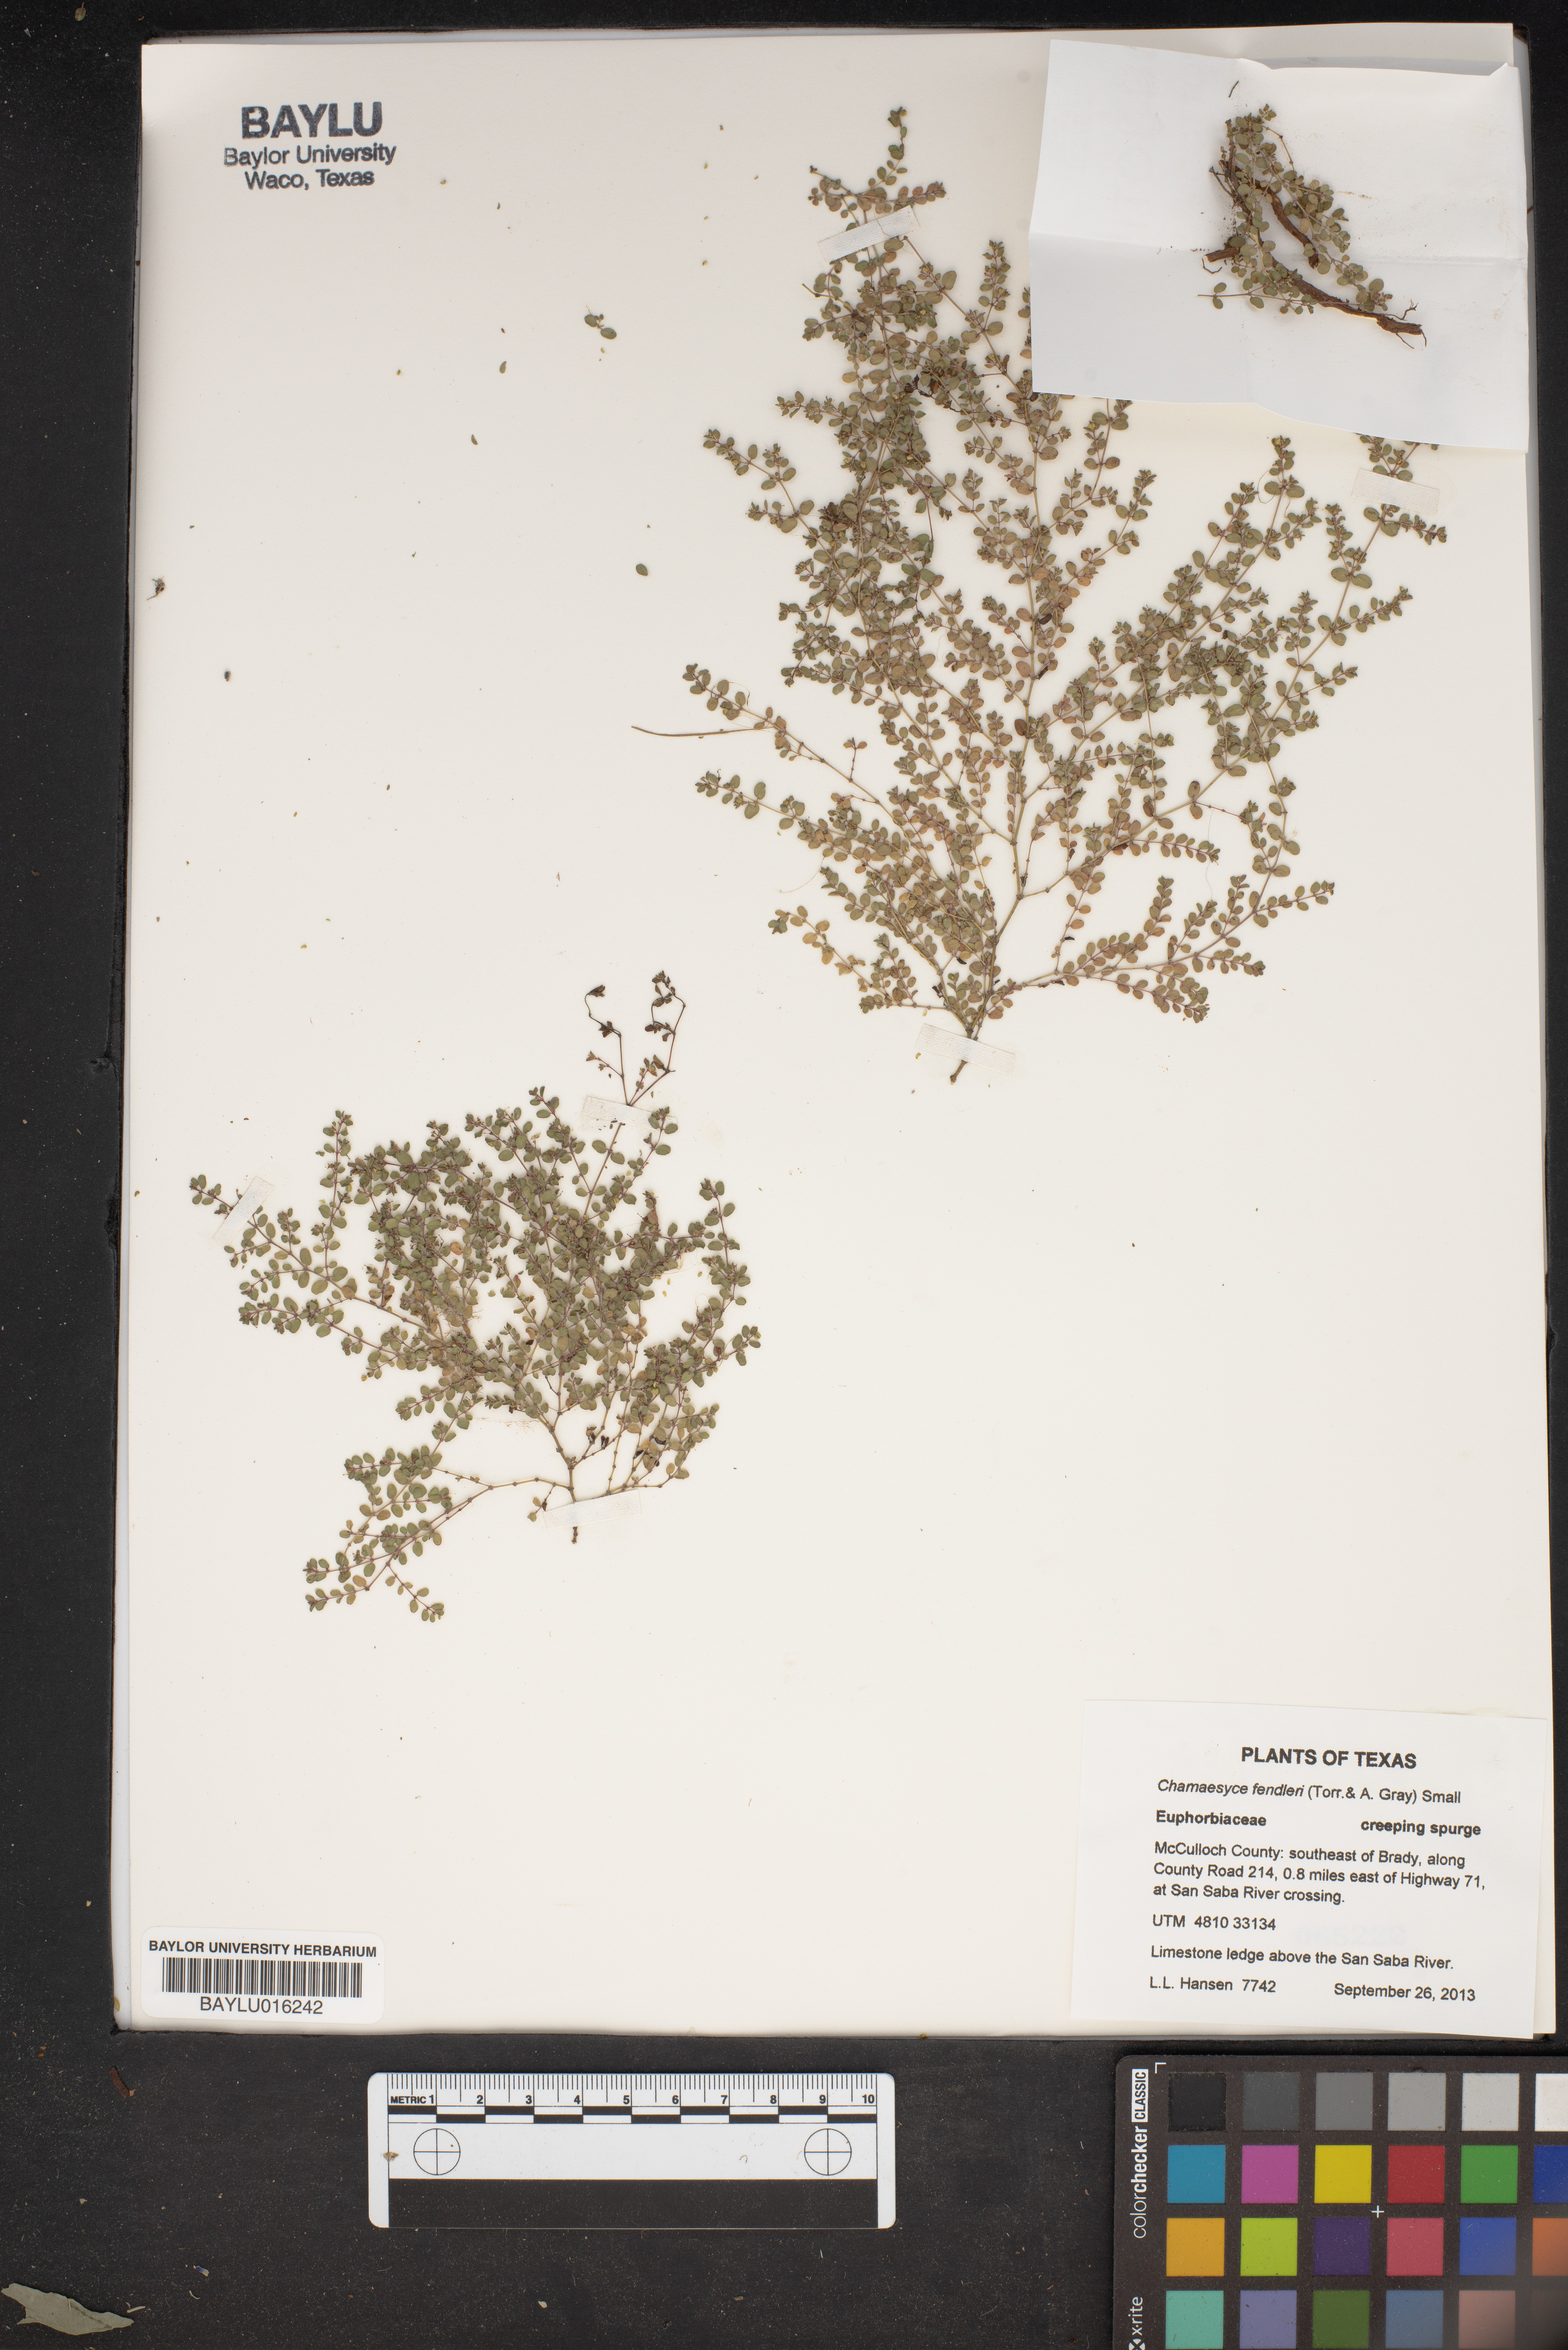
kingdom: Plantae
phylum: Tracheophyta
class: Magnoliopsida
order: Malpighiales
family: Euphorbiaceae
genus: Euphorbia
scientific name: Euphorbia fendleri
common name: Fendler's euphorbia
